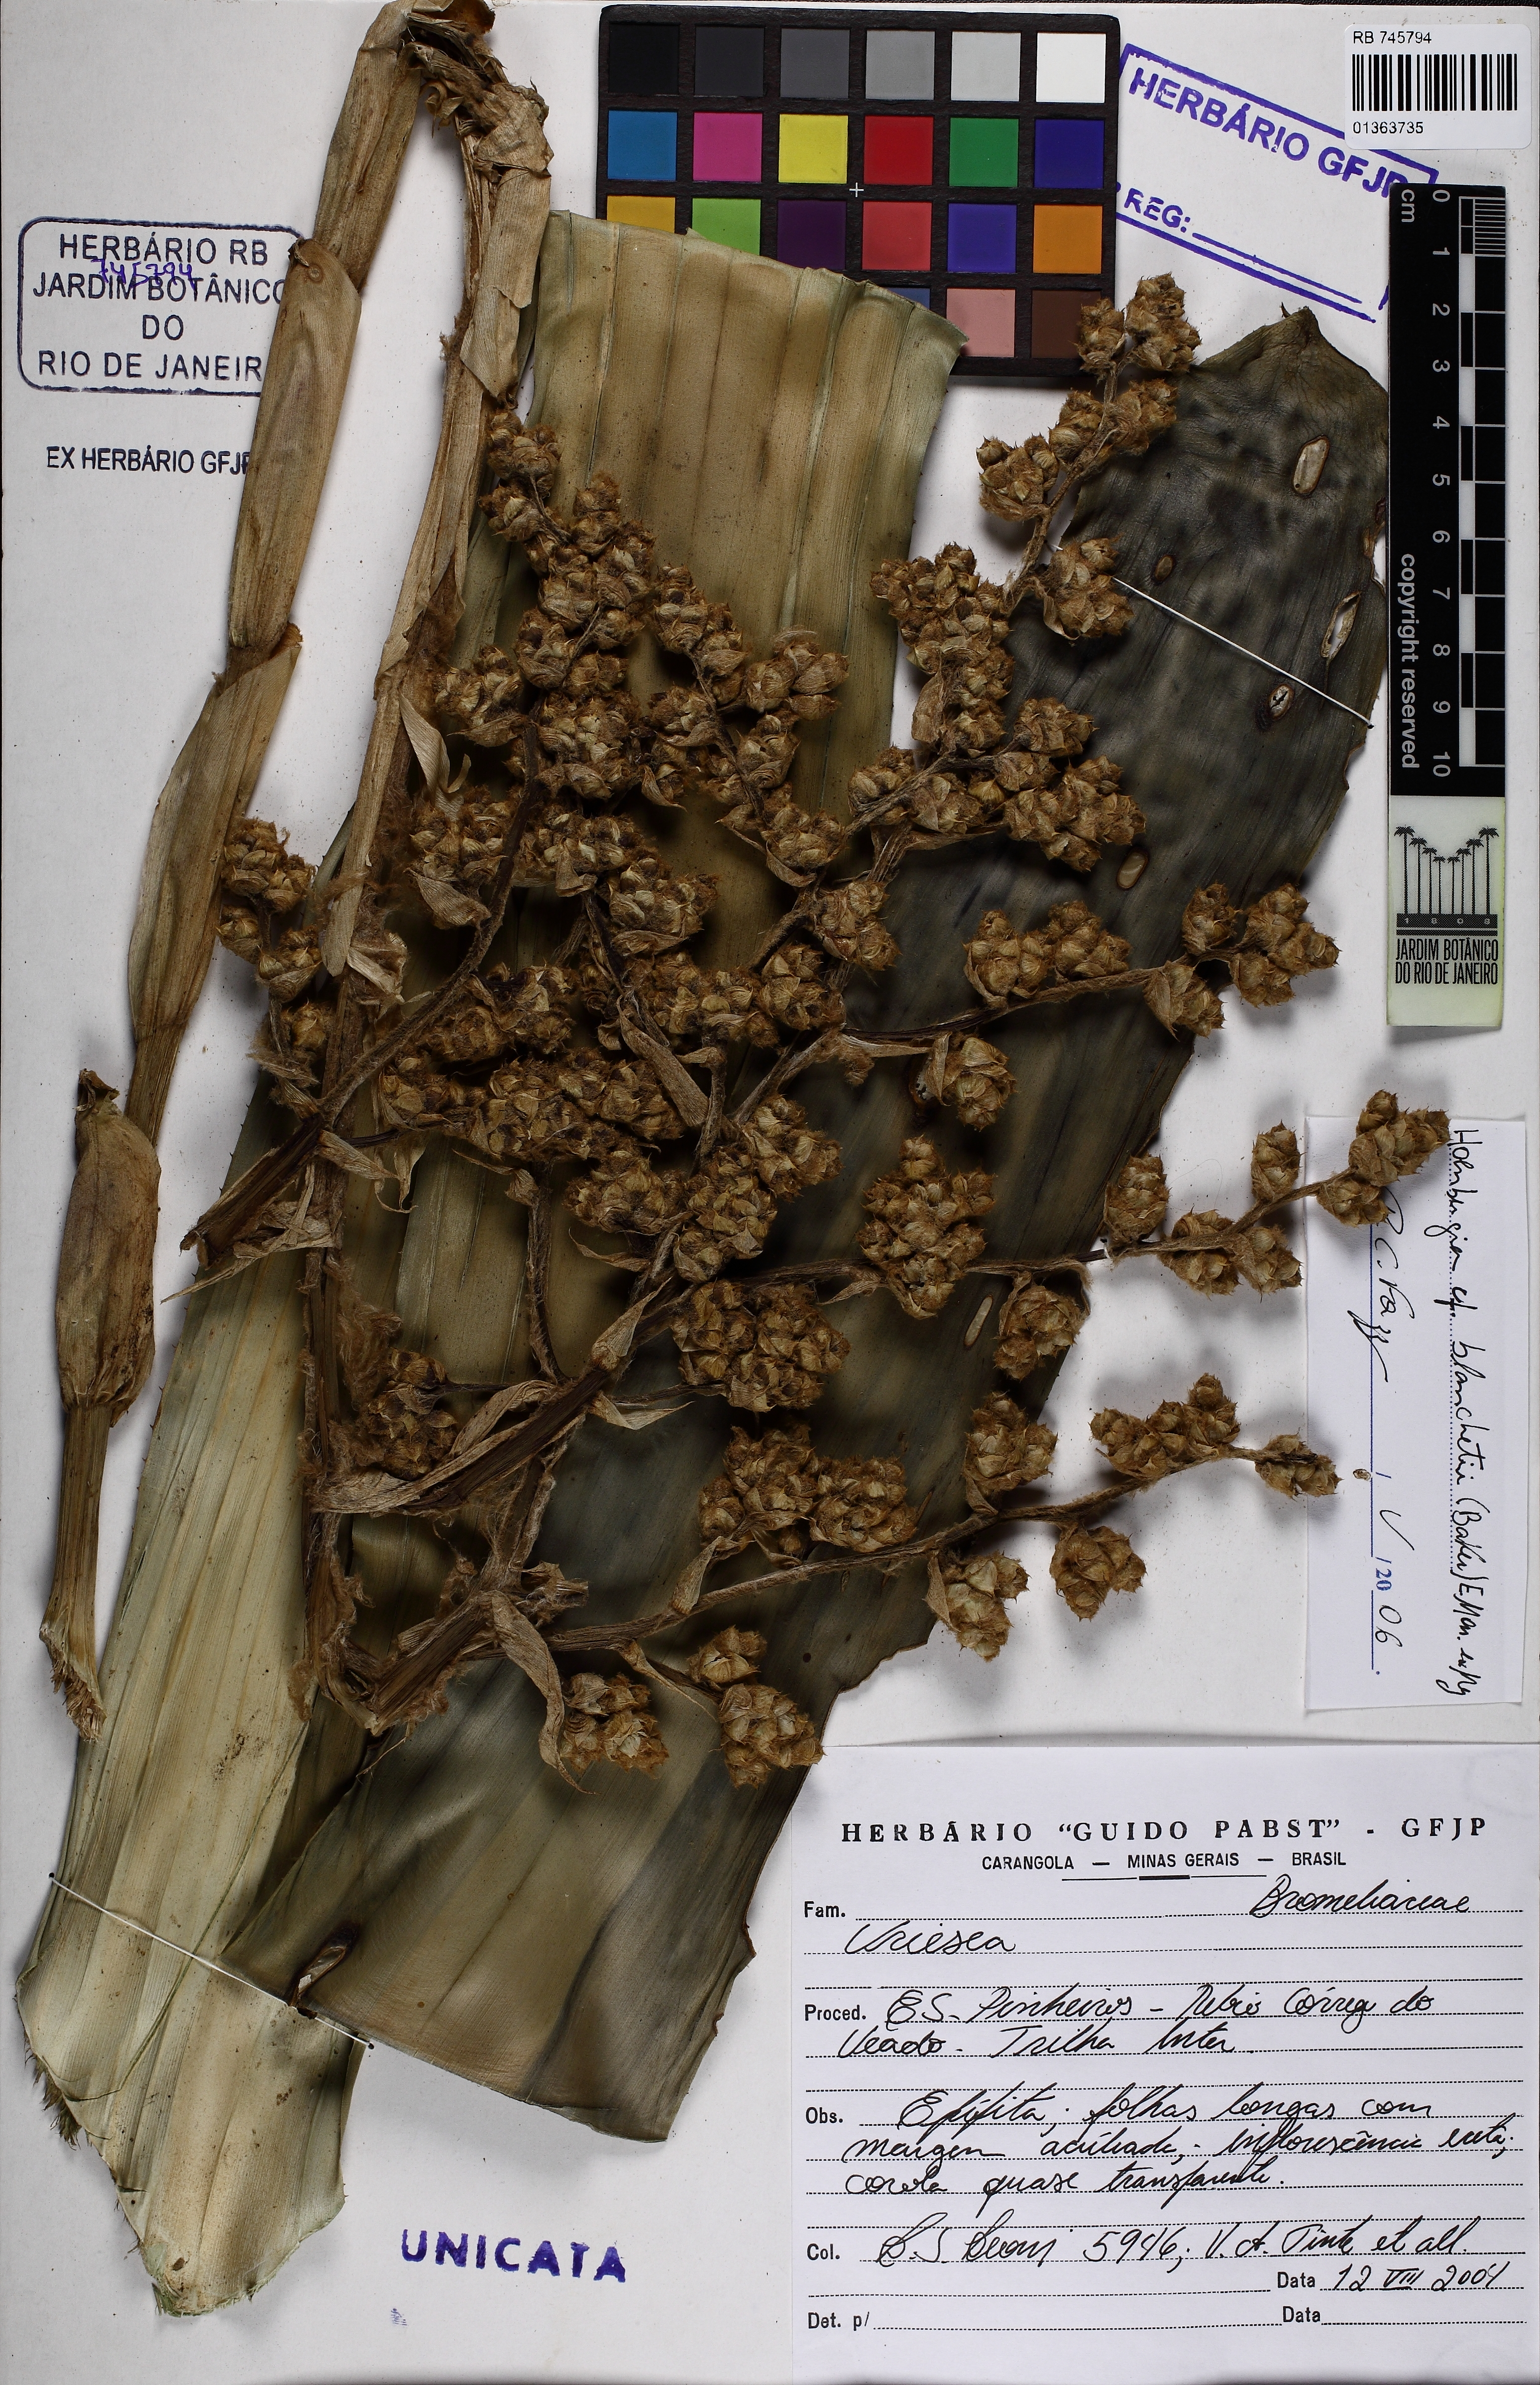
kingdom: Plantae
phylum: Tracheophyta
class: Liliopsida
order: Poales
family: Bromeliaceae
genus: Vriesea
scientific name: Vriesea
